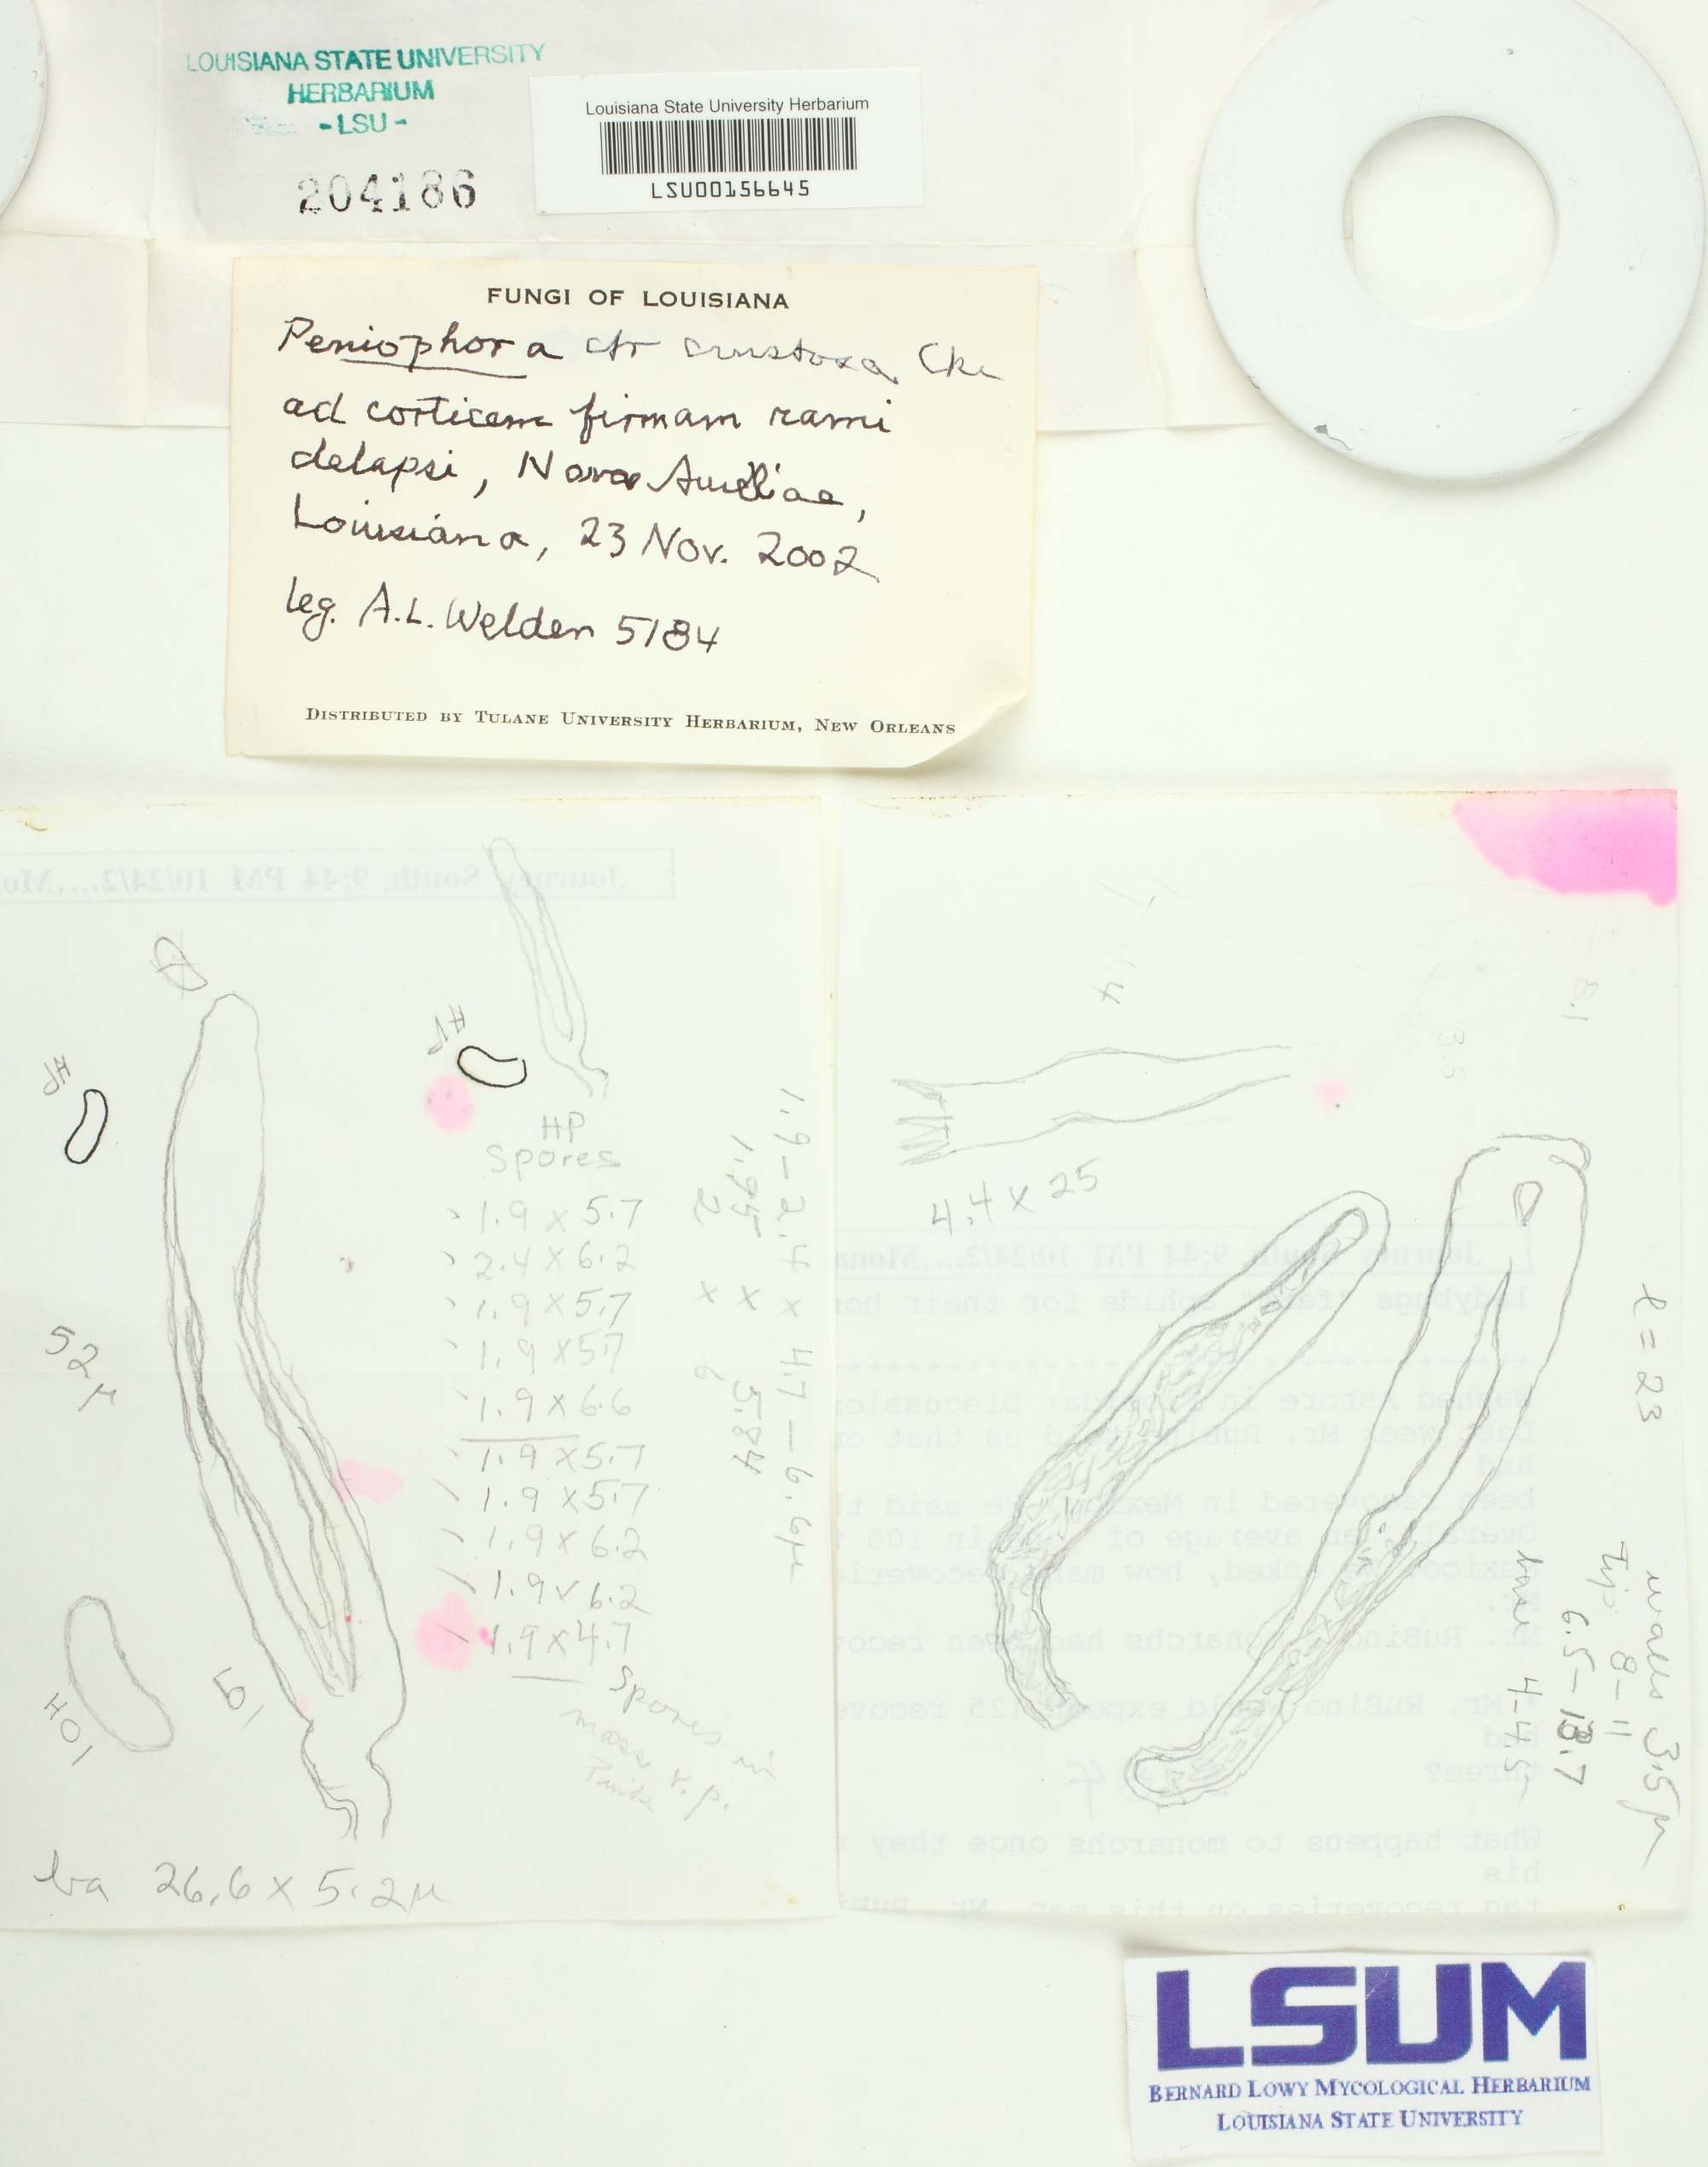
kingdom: Fungi
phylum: Basidiomycota
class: Agaricomycetes
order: Russulales
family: Peniophoraceae
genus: Peniophora
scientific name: Peniophora crustosa
